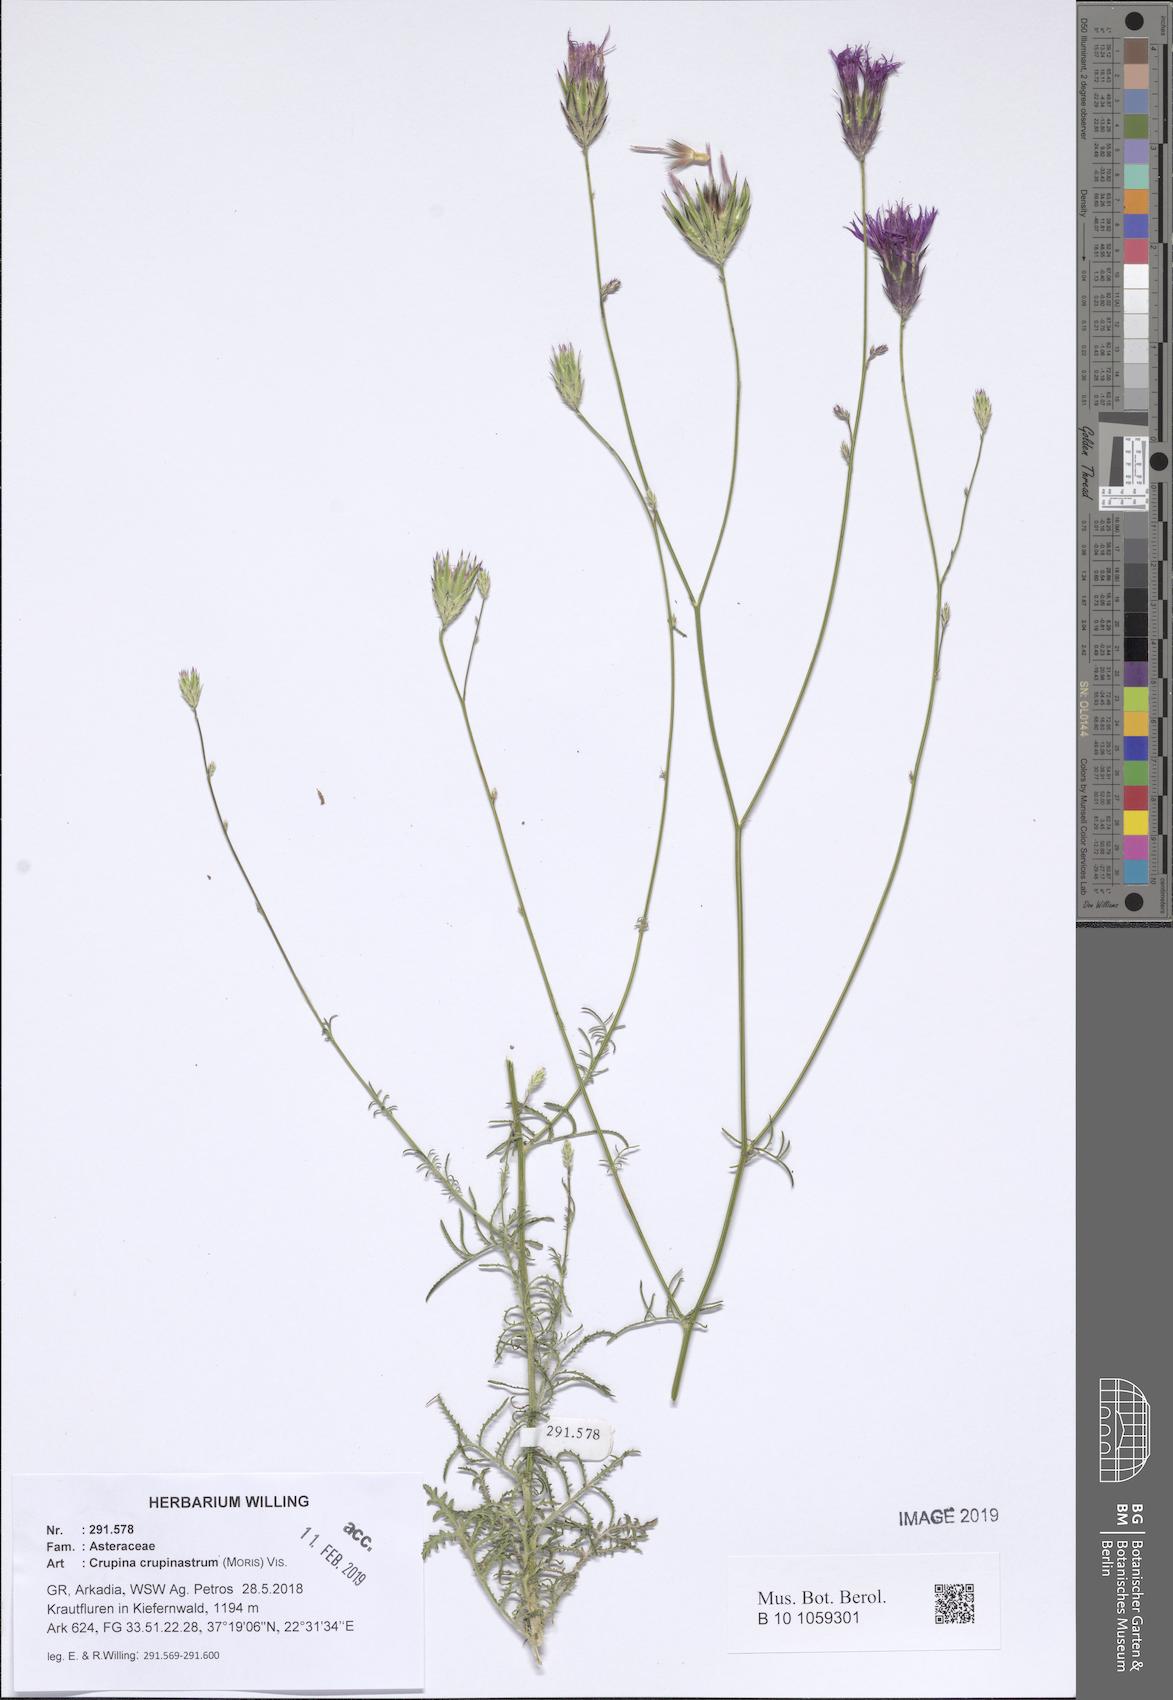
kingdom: Plantae
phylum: Tracheophyta
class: Magnoliopsida
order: Asterales
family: Asteraceae
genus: Crupina
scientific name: Crupina crupinastrum
